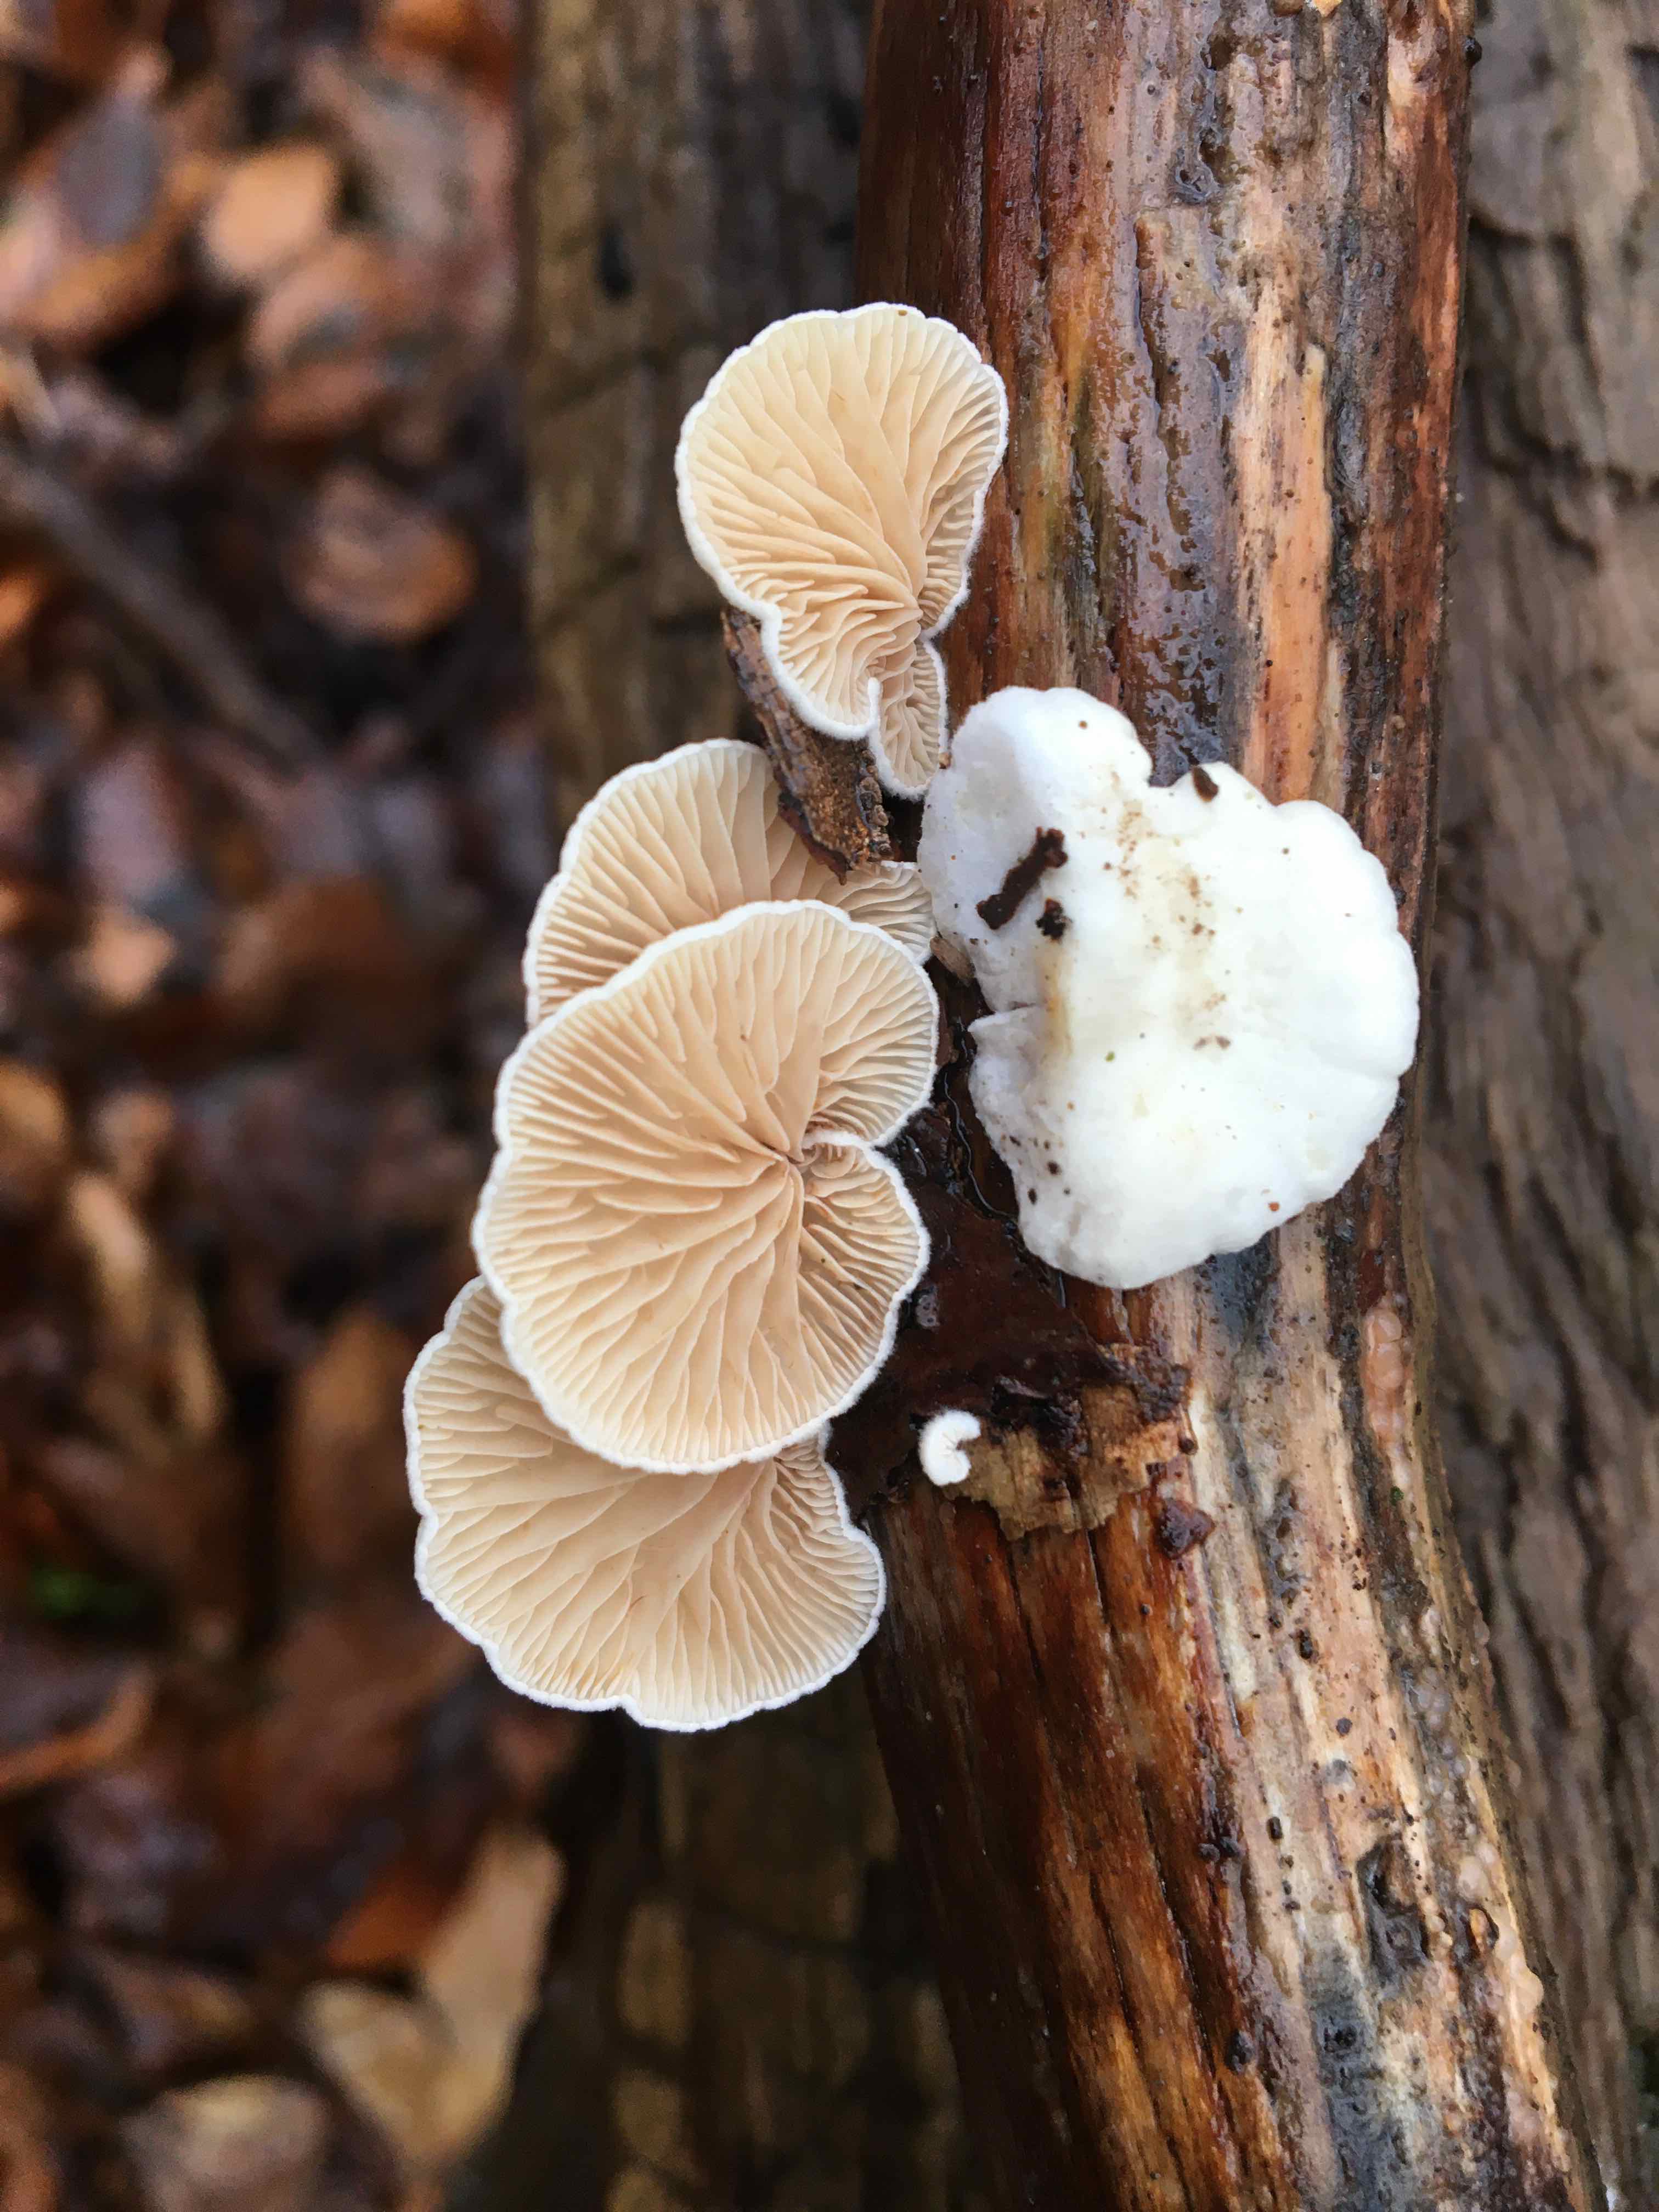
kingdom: Fungi
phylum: Basidiomycota
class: Agaricomycetes
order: Agaricales
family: Crepidotaceae
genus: Crepidotus
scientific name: Crepidotus
